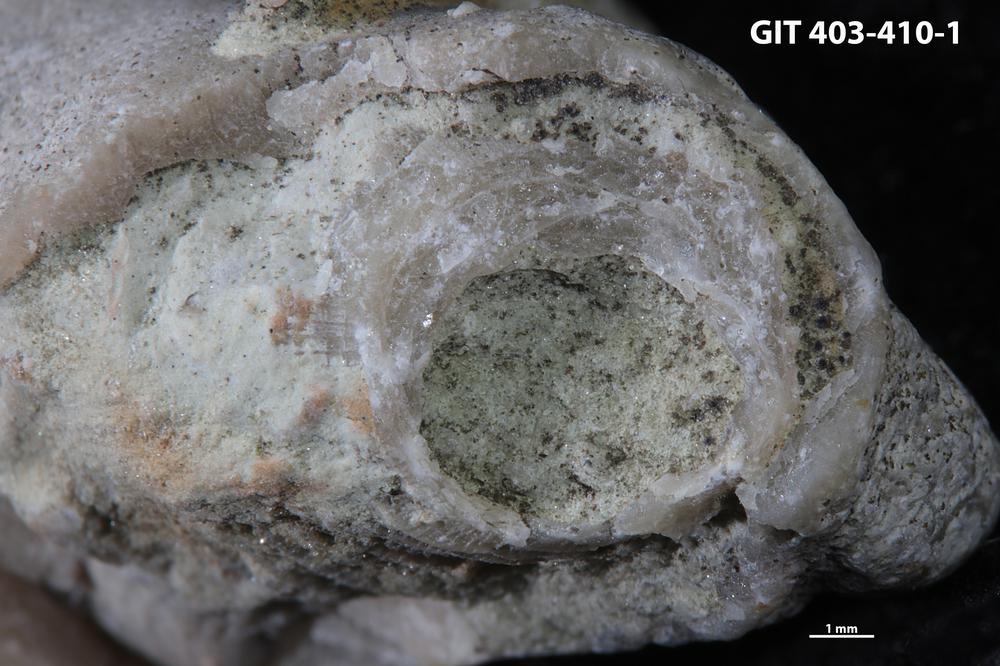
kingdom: Animalia
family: Cornulitidae
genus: Cornulites
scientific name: Cornulites
